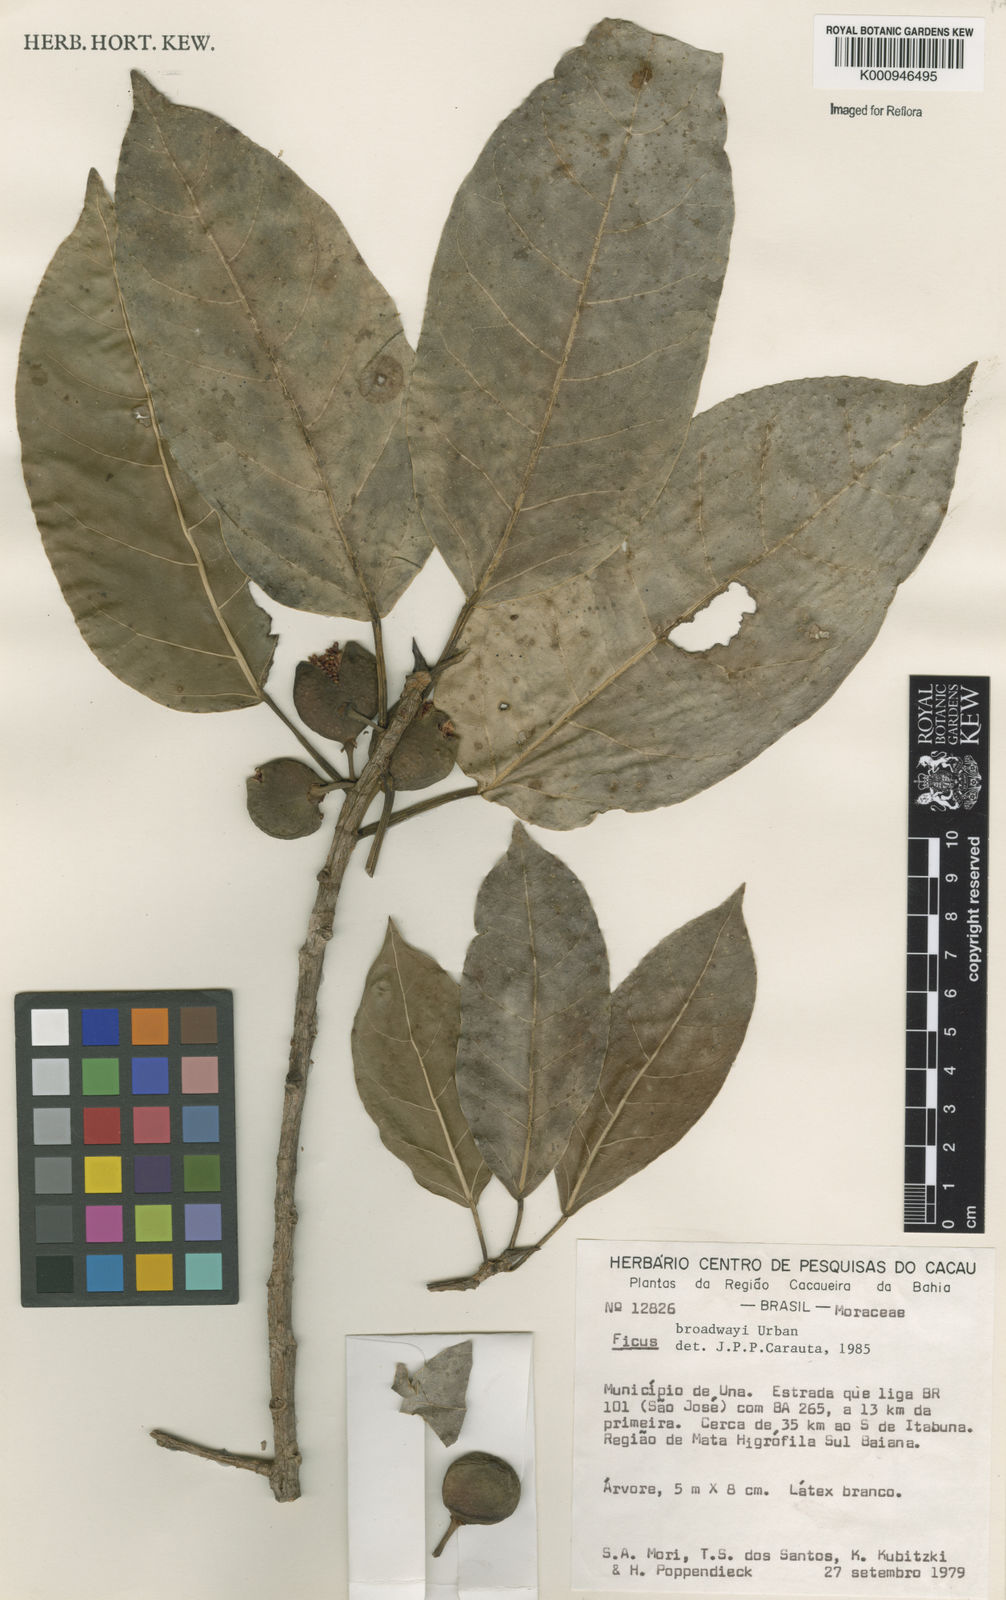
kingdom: Plantae
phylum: Tracheophyta
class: Magnoliopsida
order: Rosales
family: Moraceae
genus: Ficus
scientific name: Ficus broadwayi
